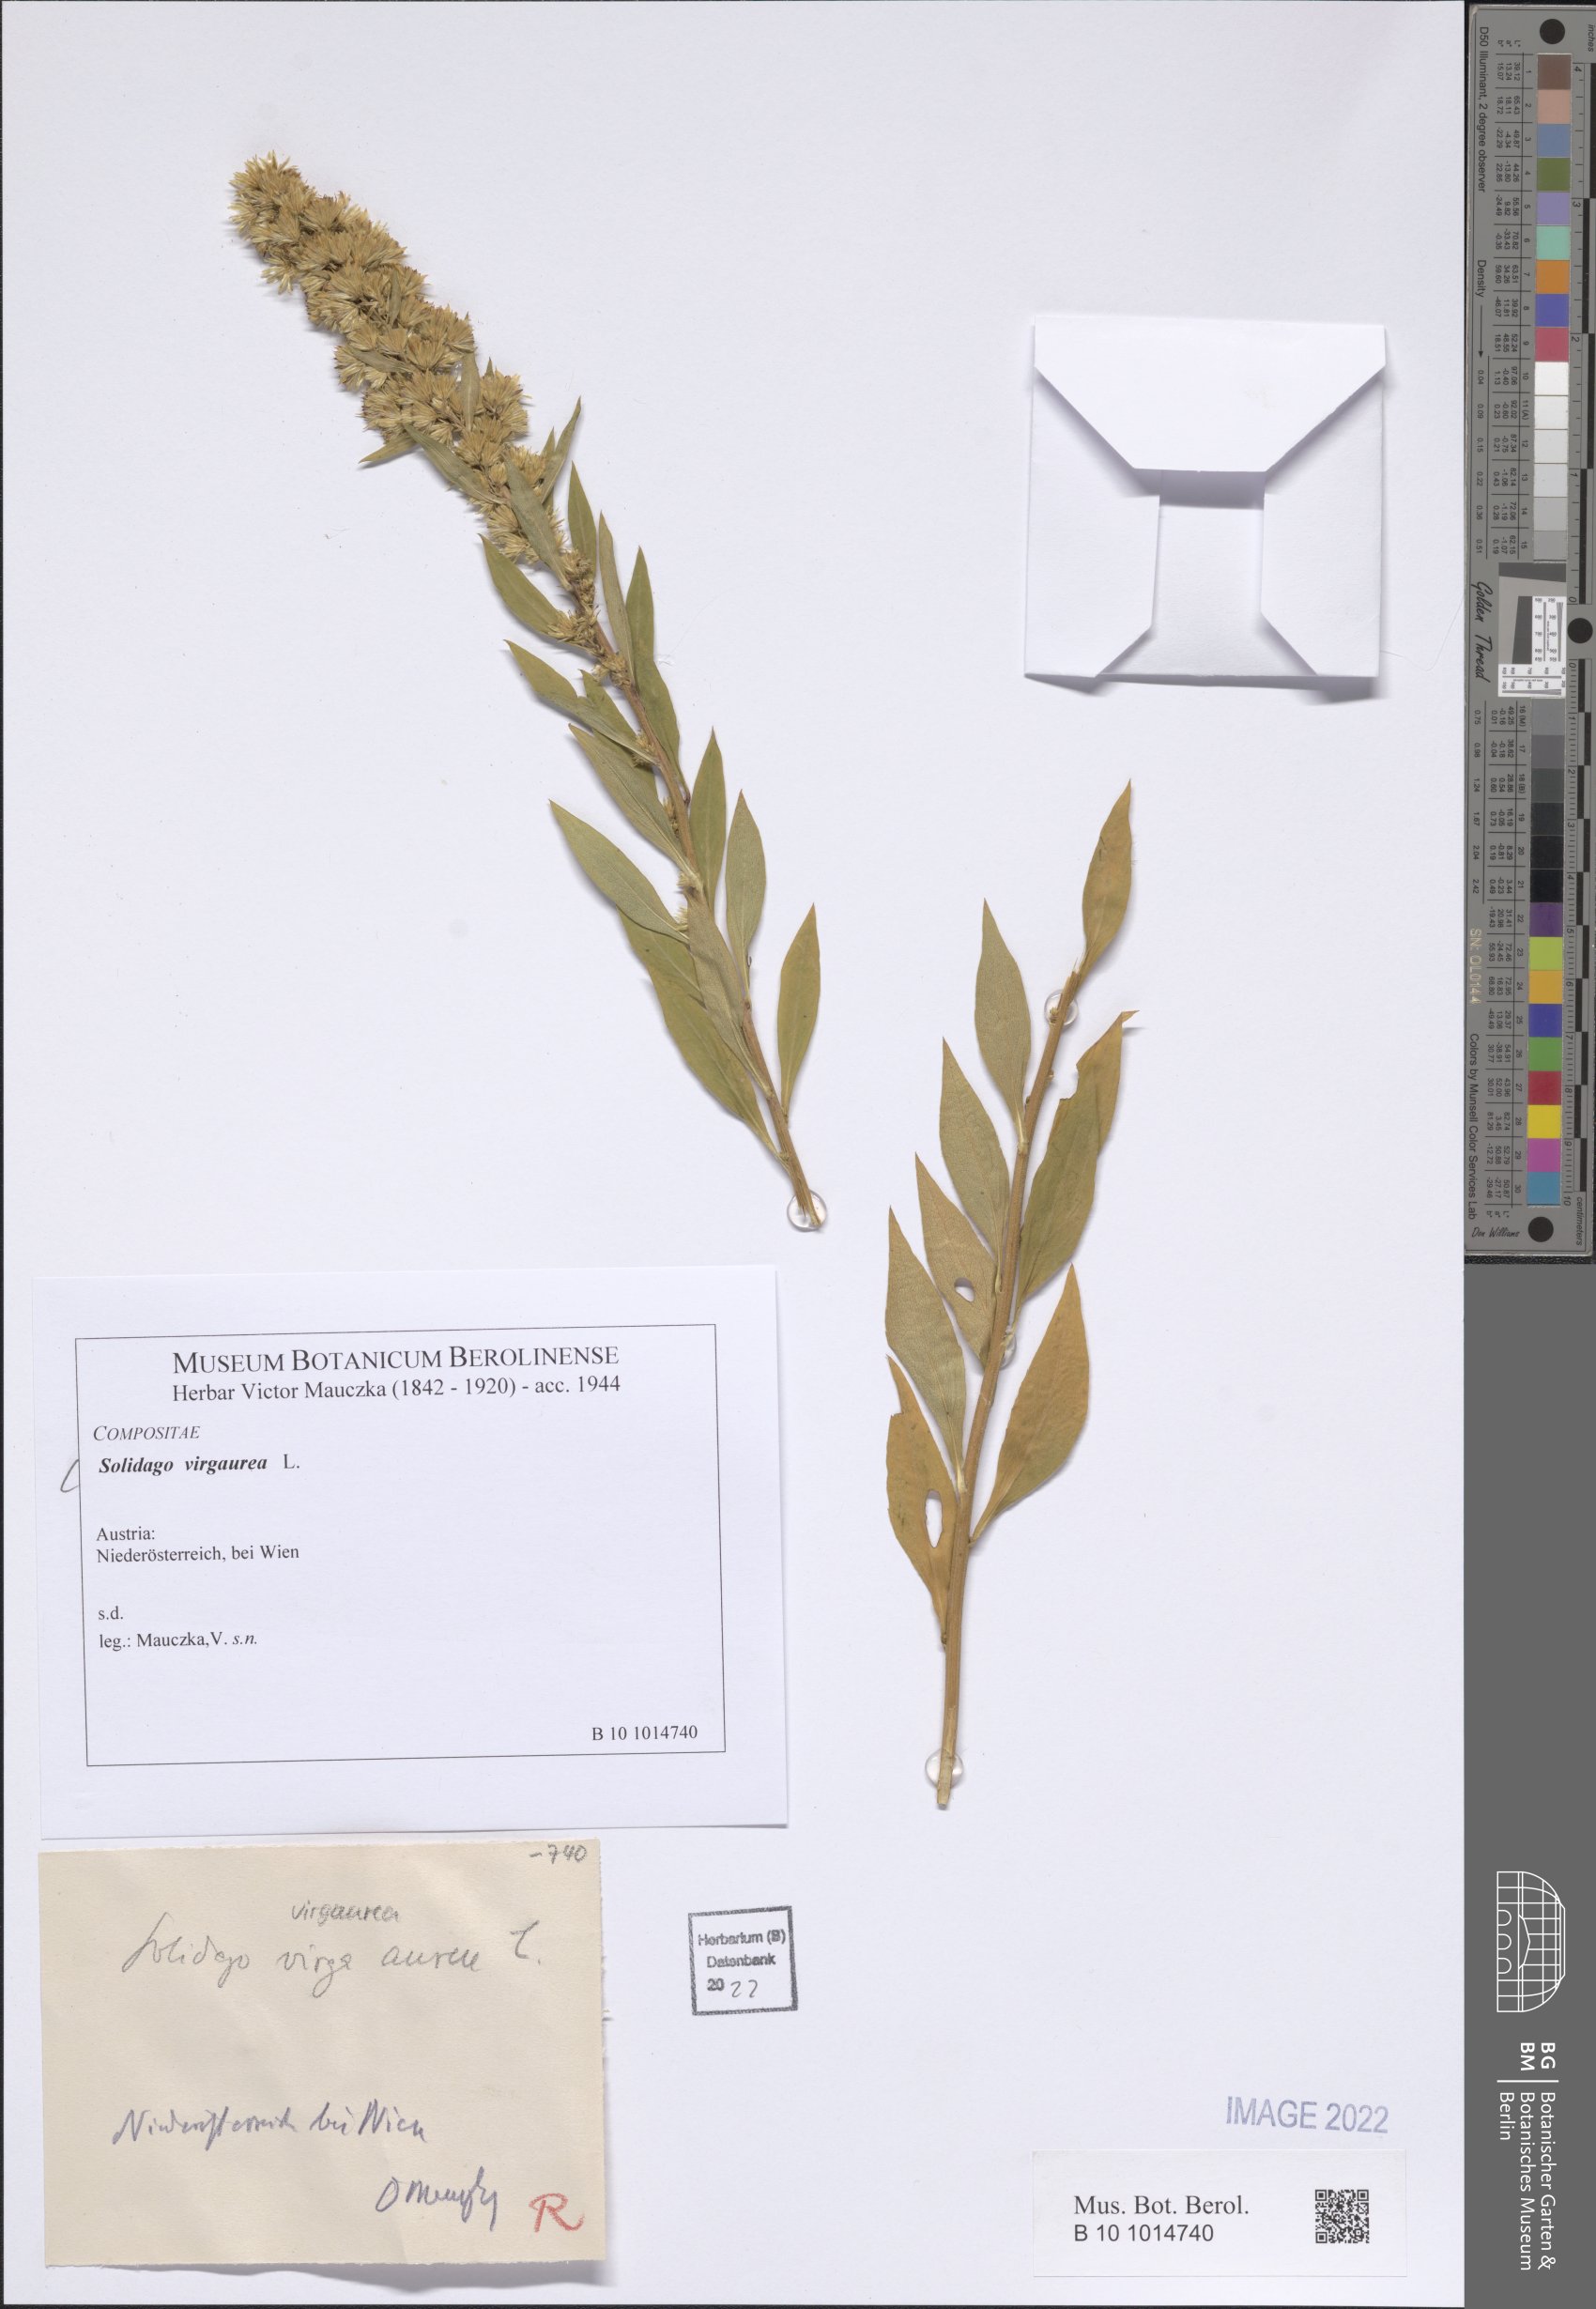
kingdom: Plantae
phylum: Tracheophyta
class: Magnoliopsida
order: Asterales
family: Asteraceae
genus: Solidago
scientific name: Solidago virgaurea
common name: Goldenrod
